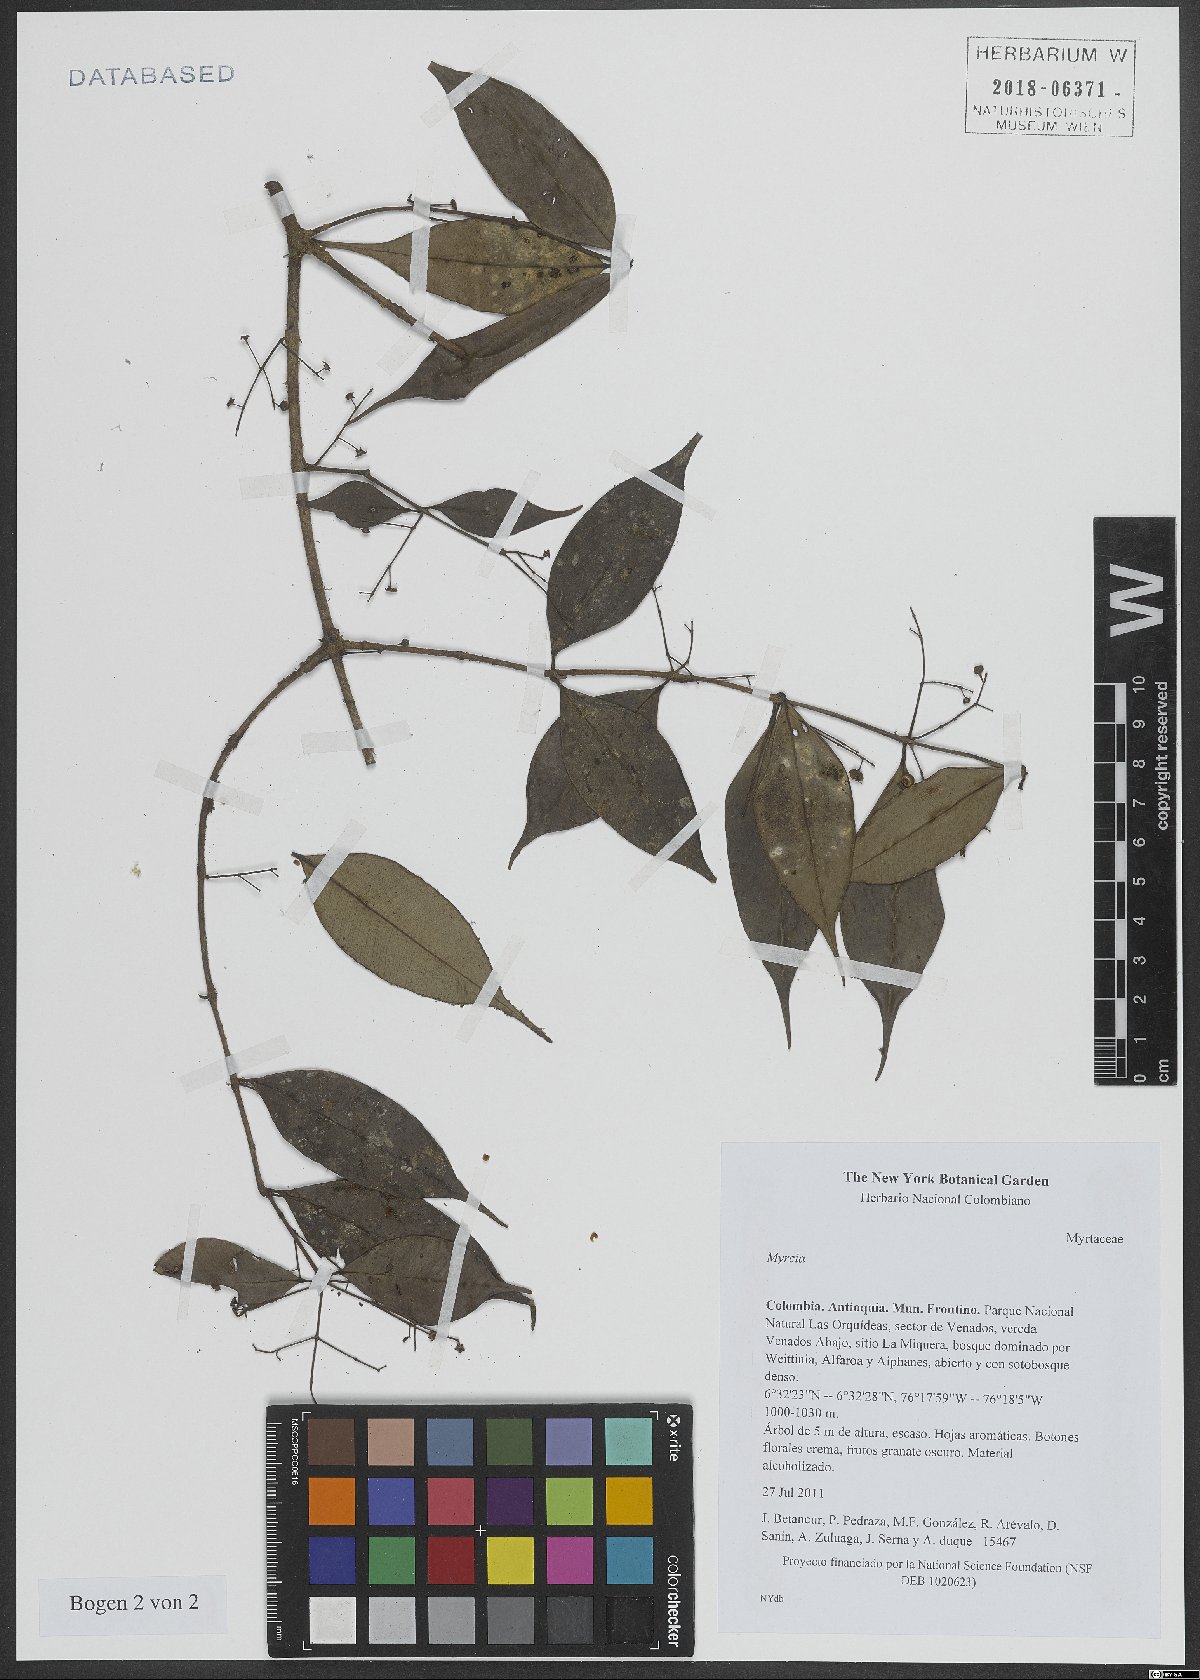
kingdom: Plantae
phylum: Tracheophyta
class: Magnoliopsida
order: Myrtales
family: Myrtaceae
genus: Myrcia
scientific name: Myrcia
